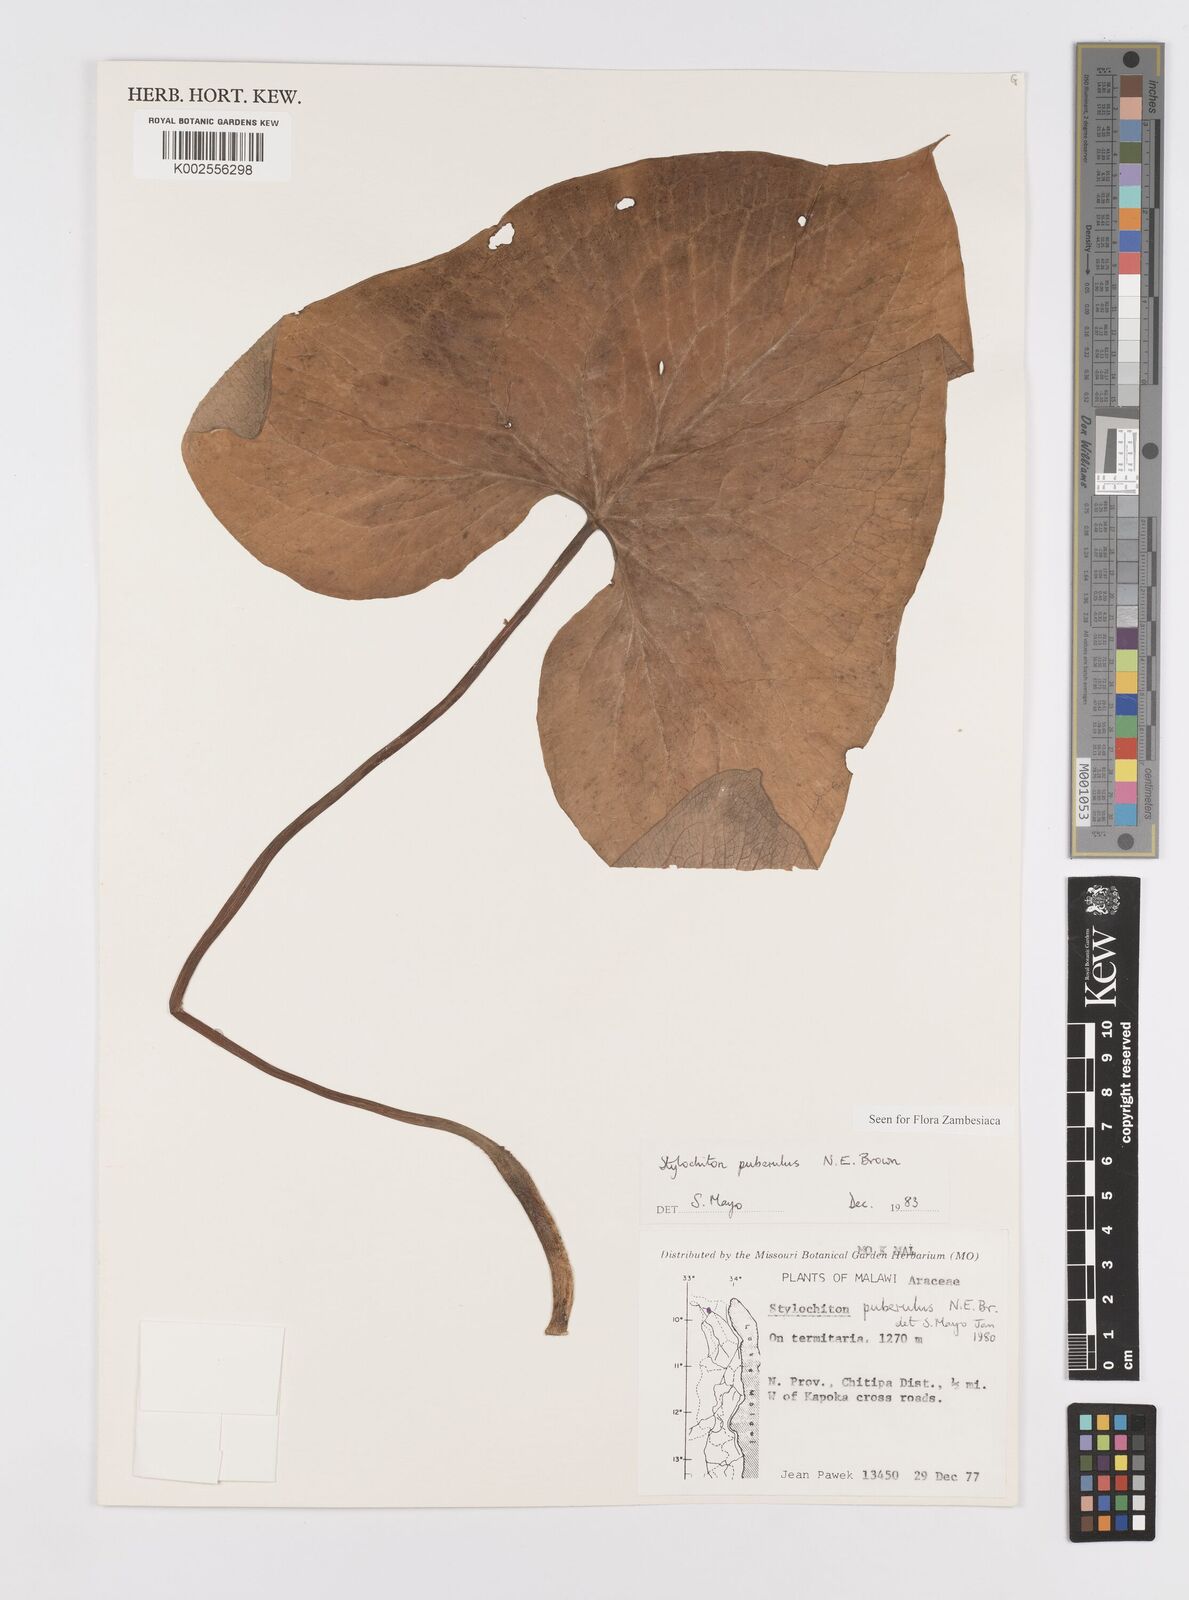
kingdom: Plantae
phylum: Tracheophyta
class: Liliopsida
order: Alismatales
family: Araceae
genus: Stylochaeton
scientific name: Stylochaeton puberulum
